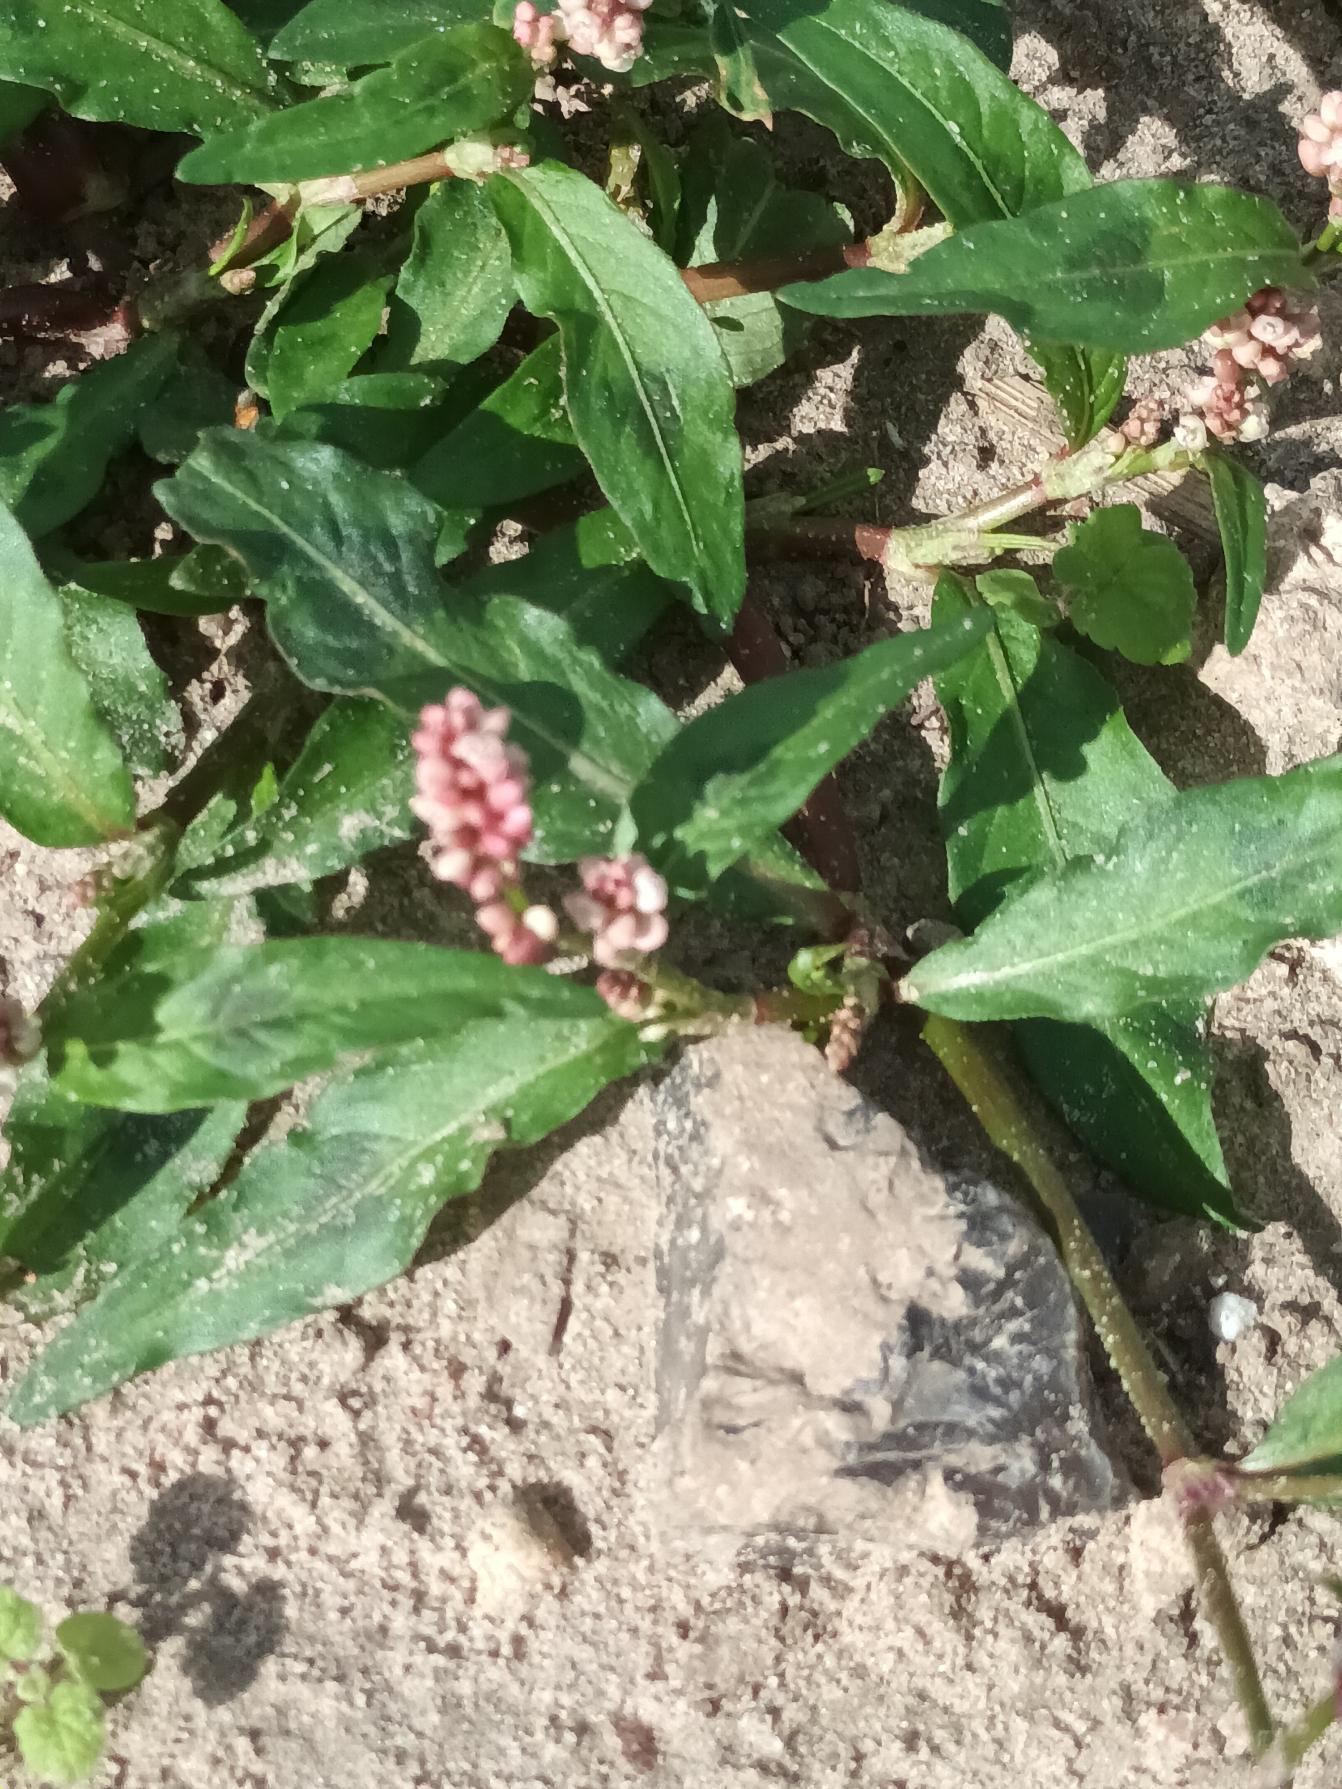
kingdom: Plantae
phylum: Tracheophyta
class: Magnoliopsida
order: Caryophyllales
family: Polygonaceae
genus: Persicaria
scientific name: Persicaria maculosa
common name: Fersken-pileurt
